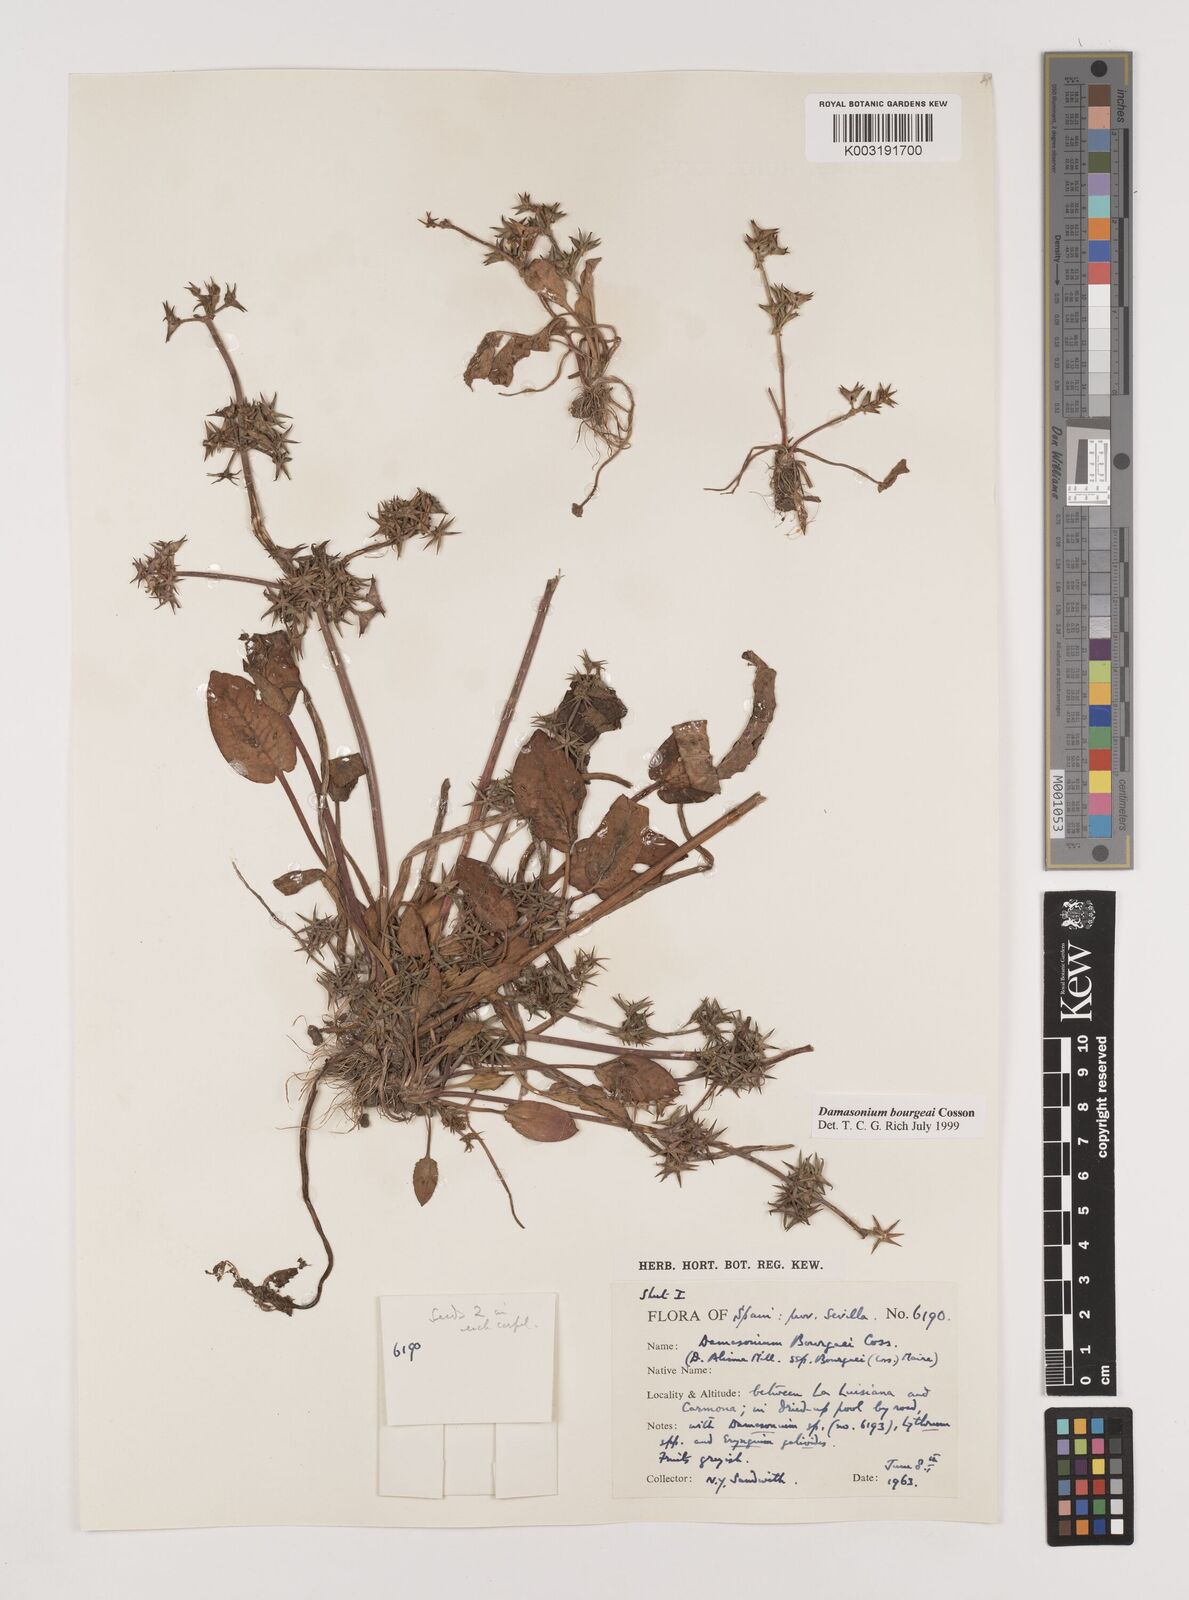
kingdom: Plantae
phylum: Tracheophyta
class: Liliopsida
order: Alismatales
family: Alismataceae
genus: Damasonium
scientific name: Damasonium bourgaei
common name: Starfruit
